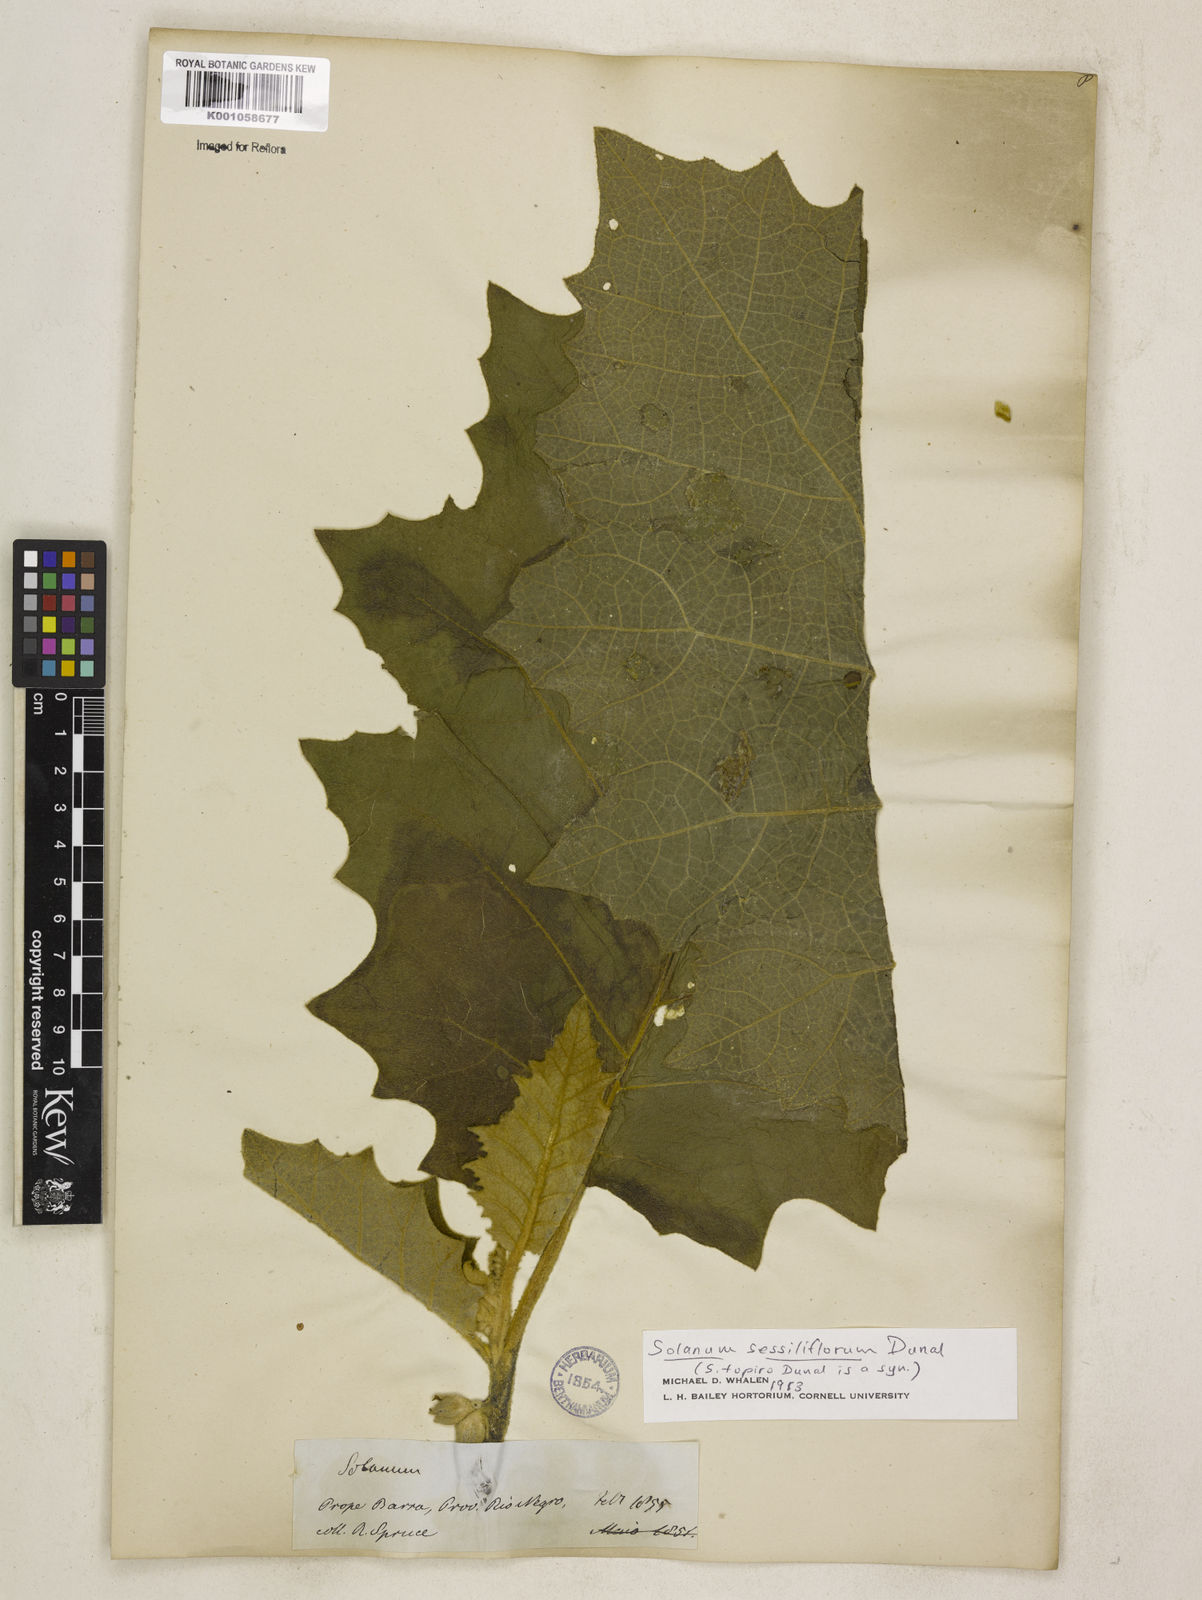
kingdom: Plantae
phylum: Tracheophyta
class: Magnoliopsida
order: Solanales
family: Solanaceae
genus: Solanum
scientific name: Solanum sessiliflorum
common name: Orinoco-apple
